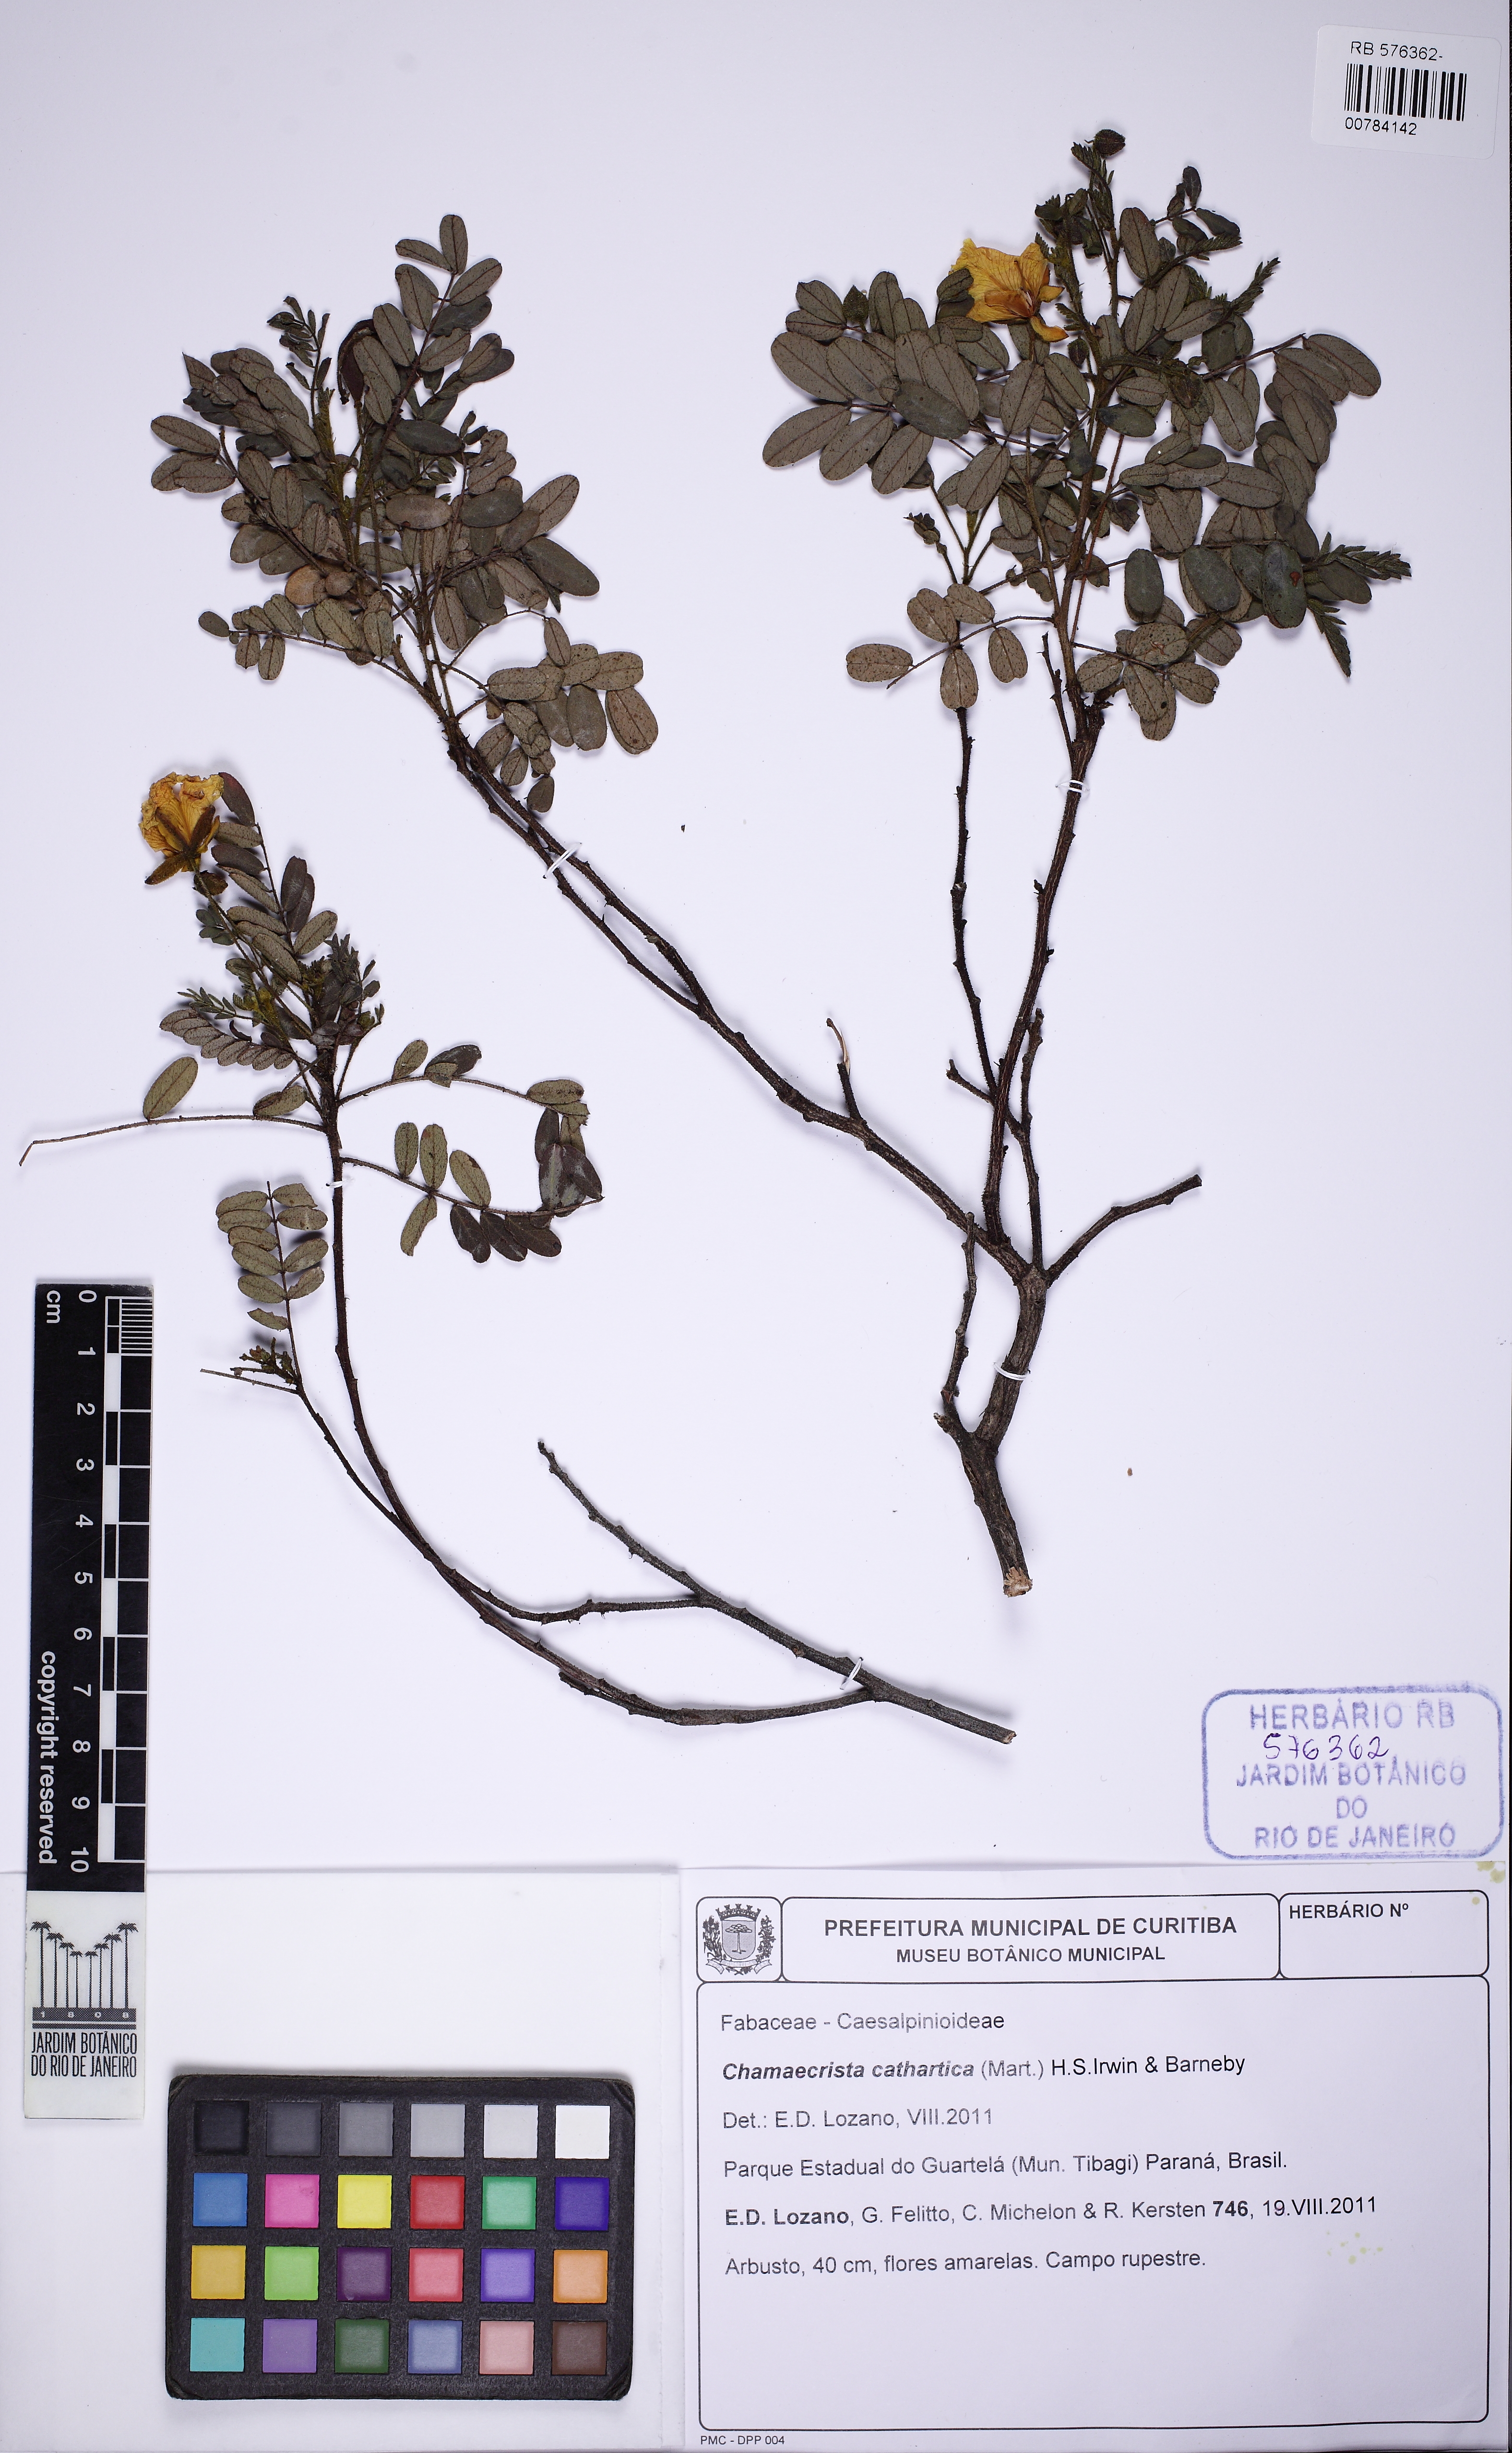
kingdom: Plantae
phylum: Tracheophyta
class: Magnoliopsida
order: Fabales
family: Fabaceae
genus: Chamaecrista
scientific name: Chamaecrista cathartica
